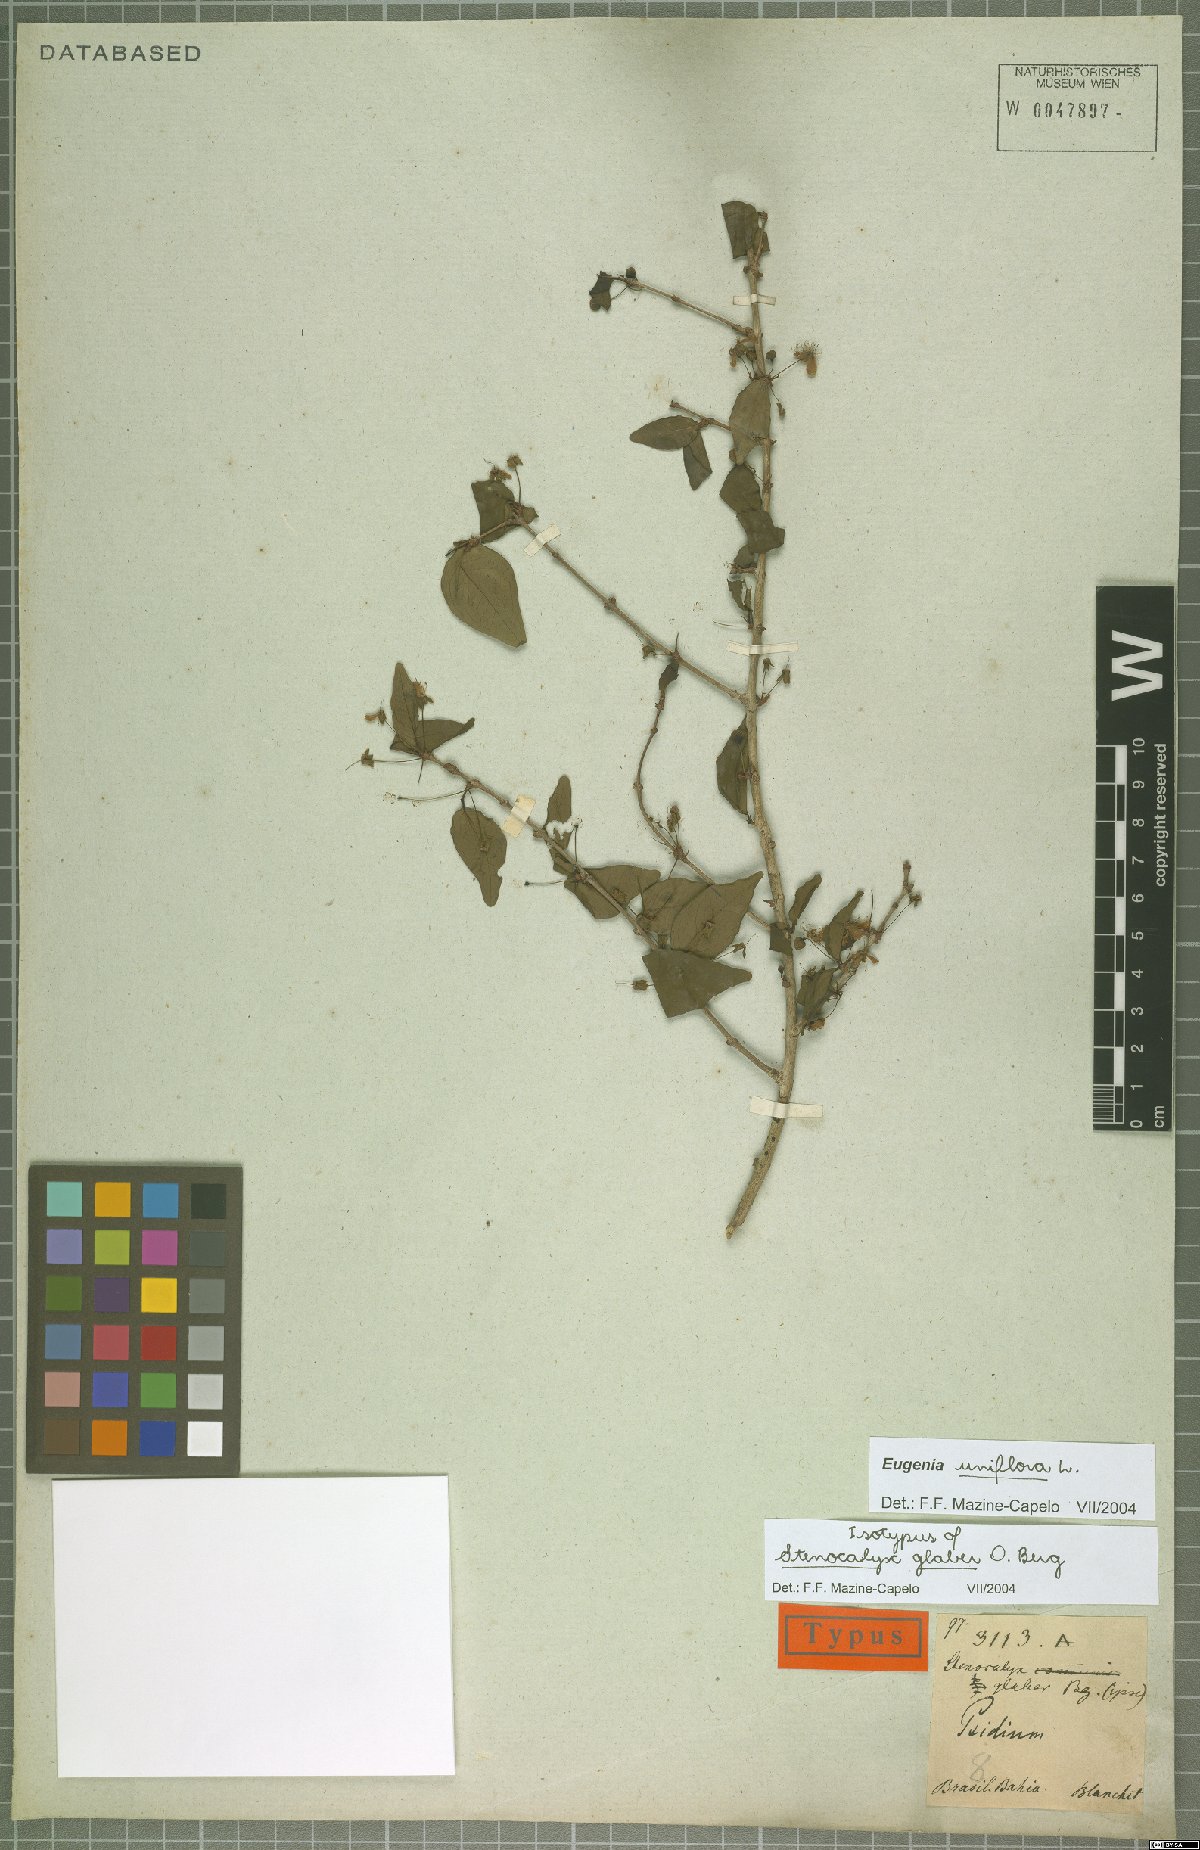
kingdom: Plantae
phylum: Tracheophyta
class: Magnoliopsida
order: Myrtales
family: Myrtaceae
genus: Eugenia
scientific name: Eugenia uniflora
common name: Surinam cherry
